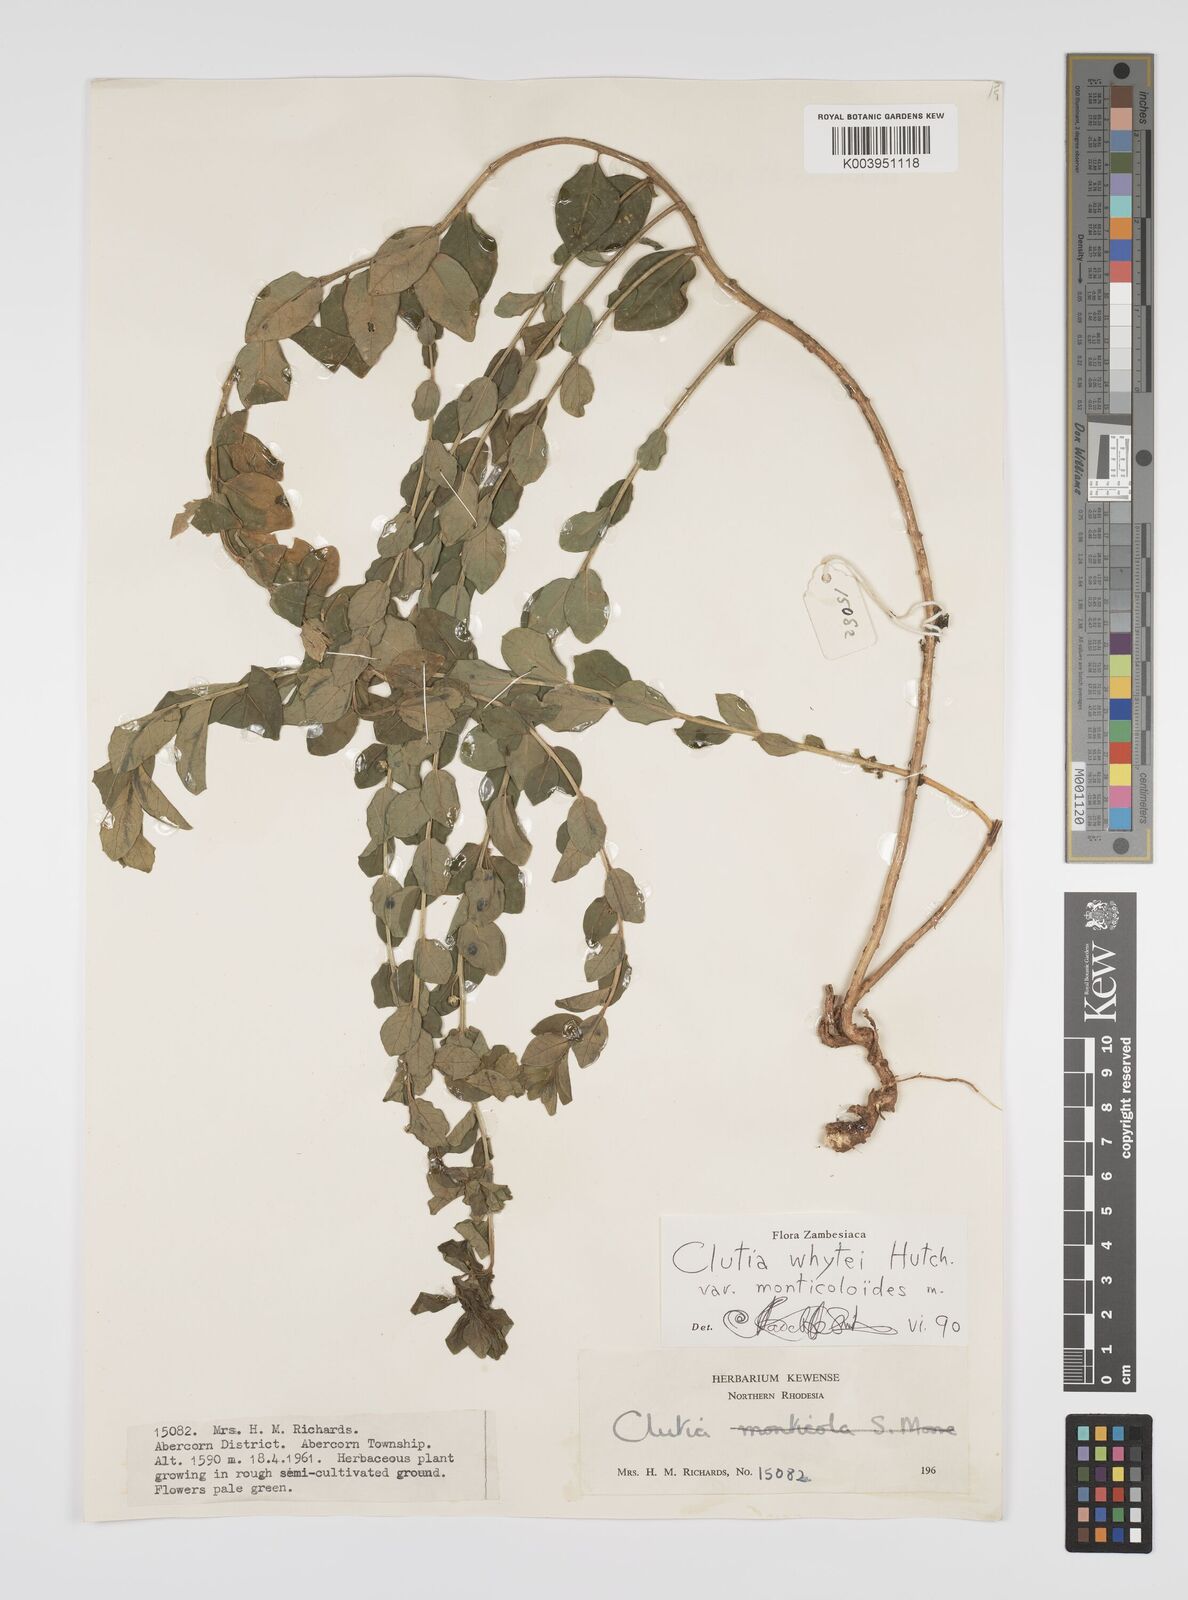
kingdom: Plantae
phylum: Tracheophyta
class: Magnoliopsida
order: Malpighiales
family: Peraceae
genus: Clutia
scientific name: Clutia whytei
